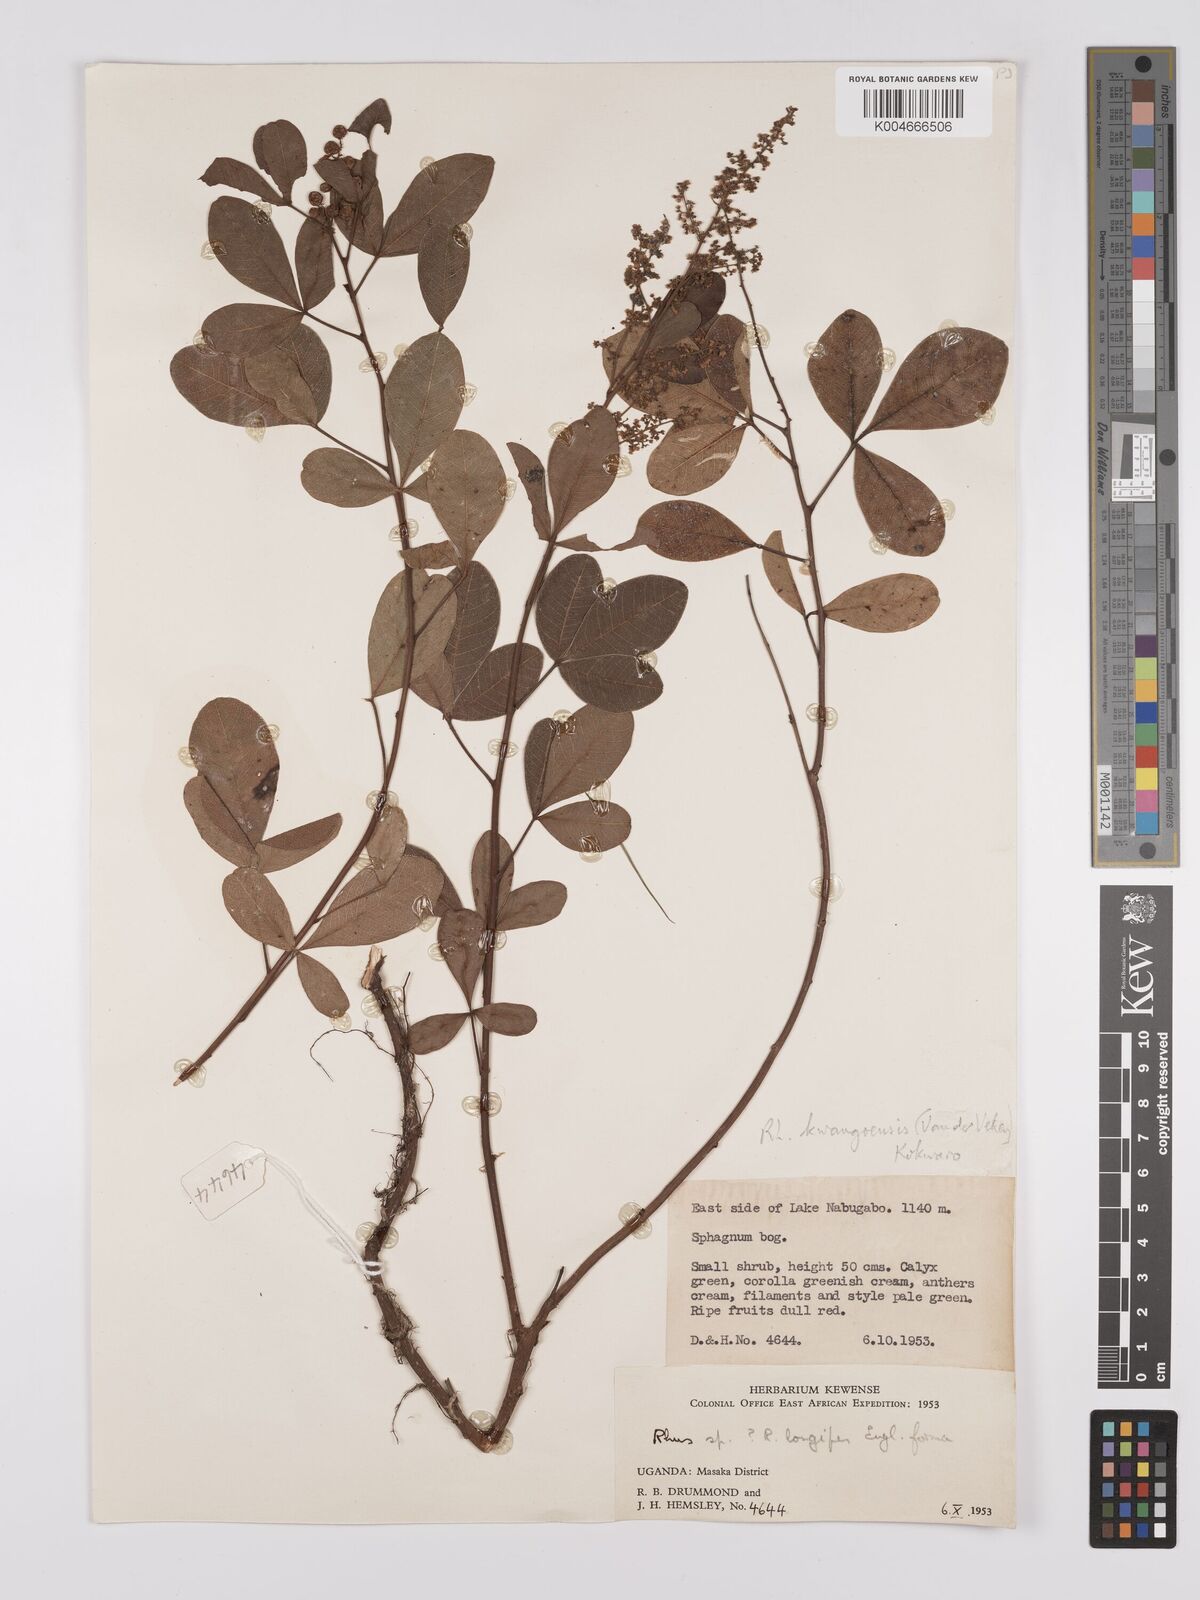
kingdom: Plantae
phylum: Tracheophyta
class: Magnoliopsida
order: Sapindales
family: Anacardiaceae
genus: Searsia
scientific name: Searsia kwangoensis
